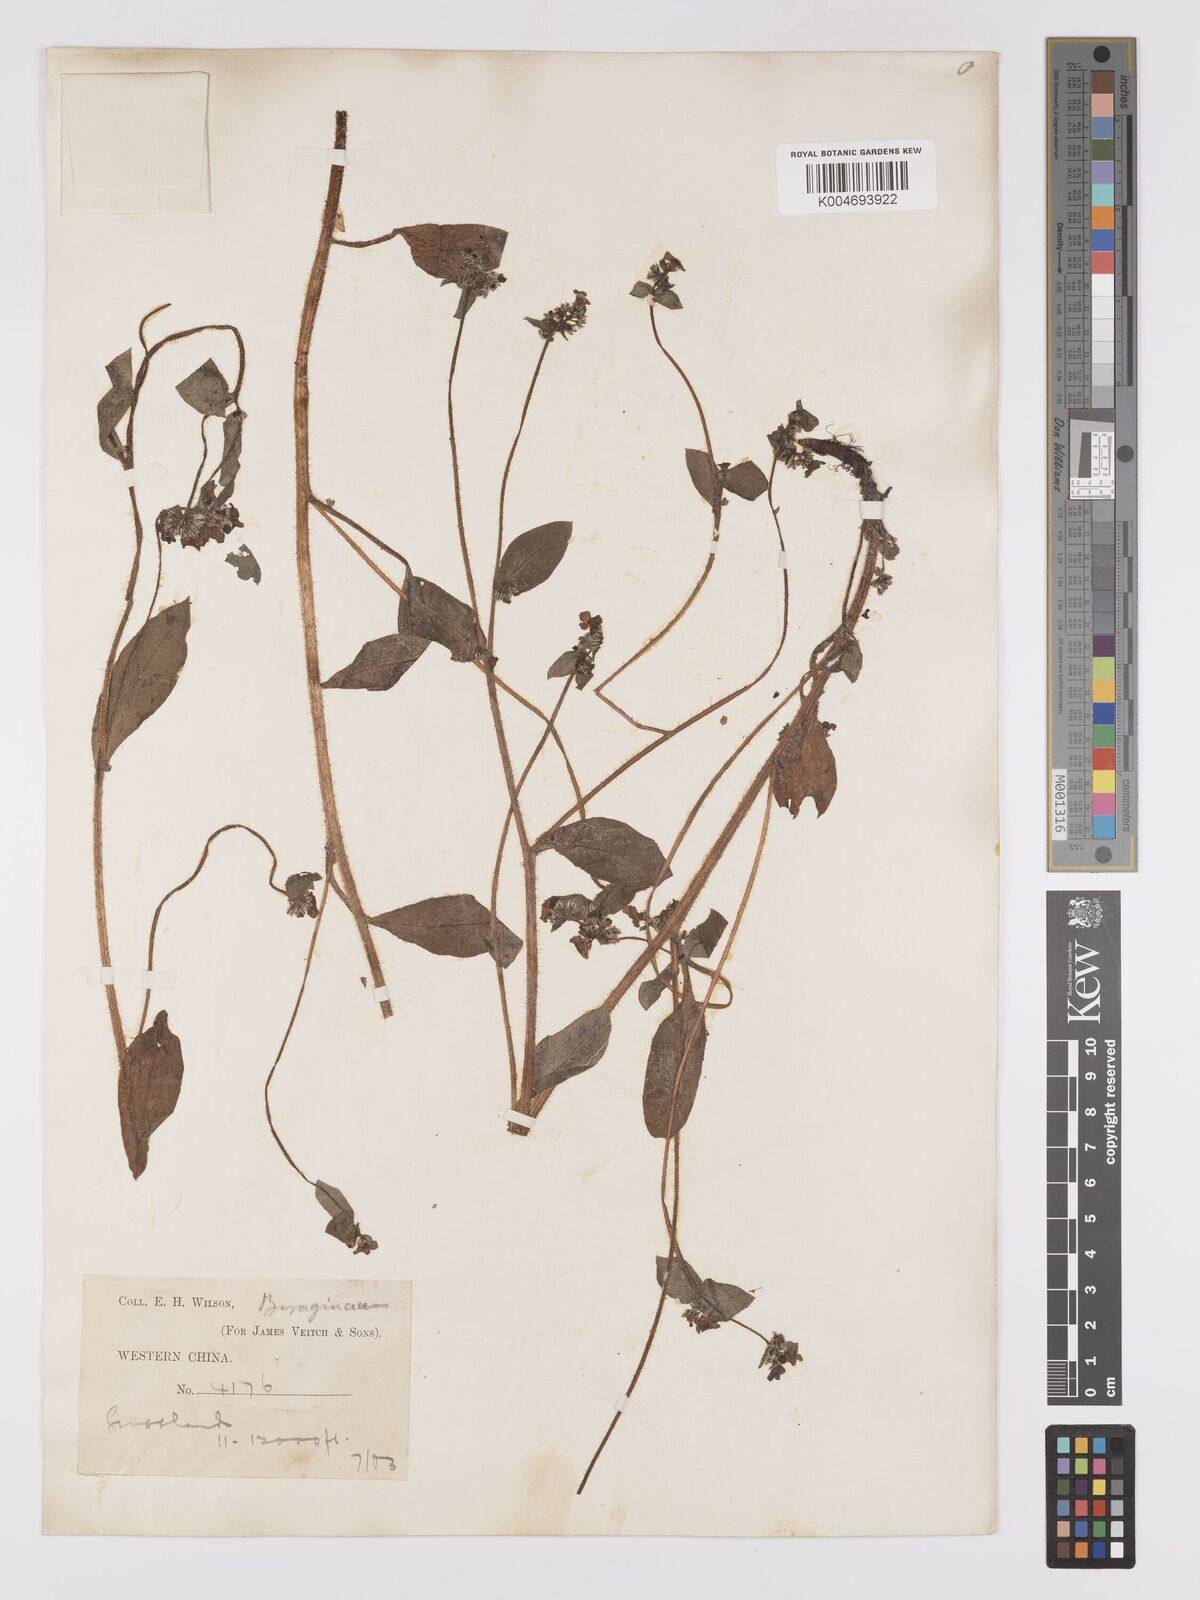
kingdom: Plantae
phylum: Tracheophyta
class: Magnoliopsida
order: Boraginales
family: Boraginaceae
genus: Microula
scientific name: Microula sikkimensis
